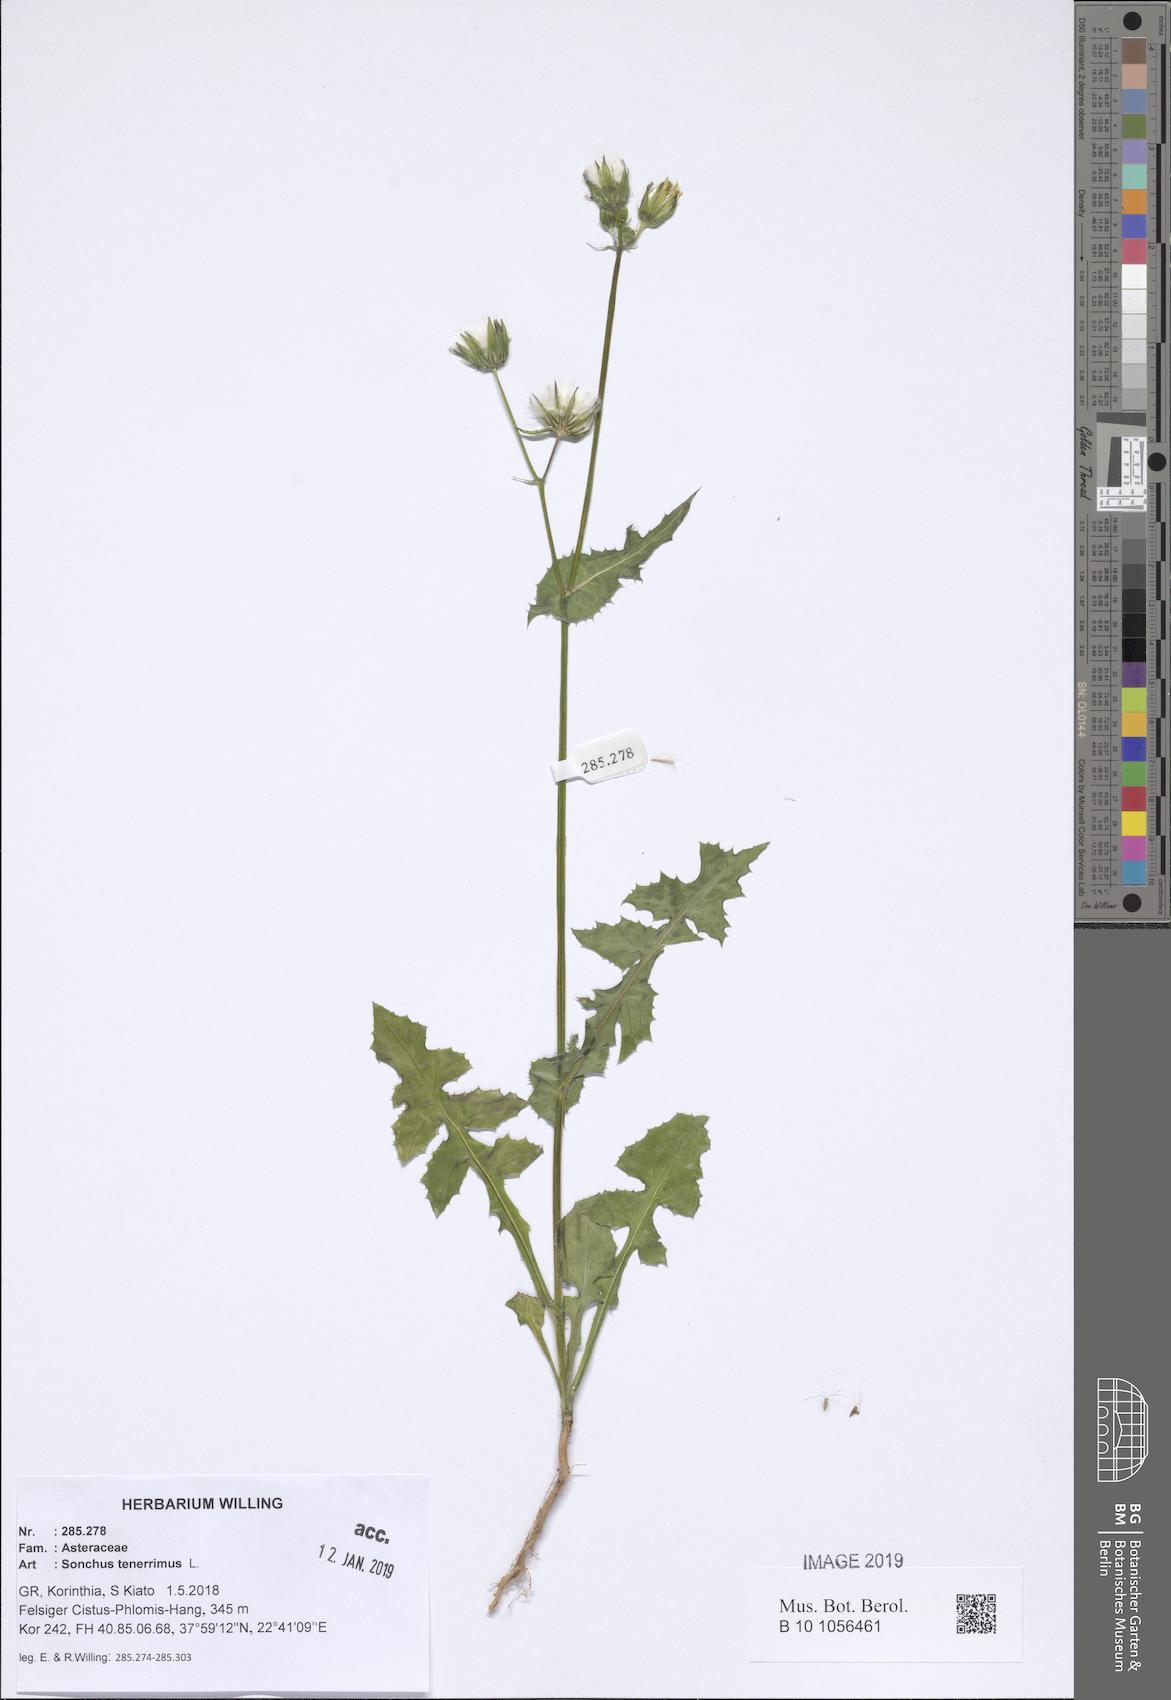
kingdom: Plantae
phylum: Tracheophyta
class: Magnoliopsida
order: Asterales
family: Asteraceae
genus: Sonchus
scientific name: Sonchus tenerrimus
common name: Clammy sowthistle
